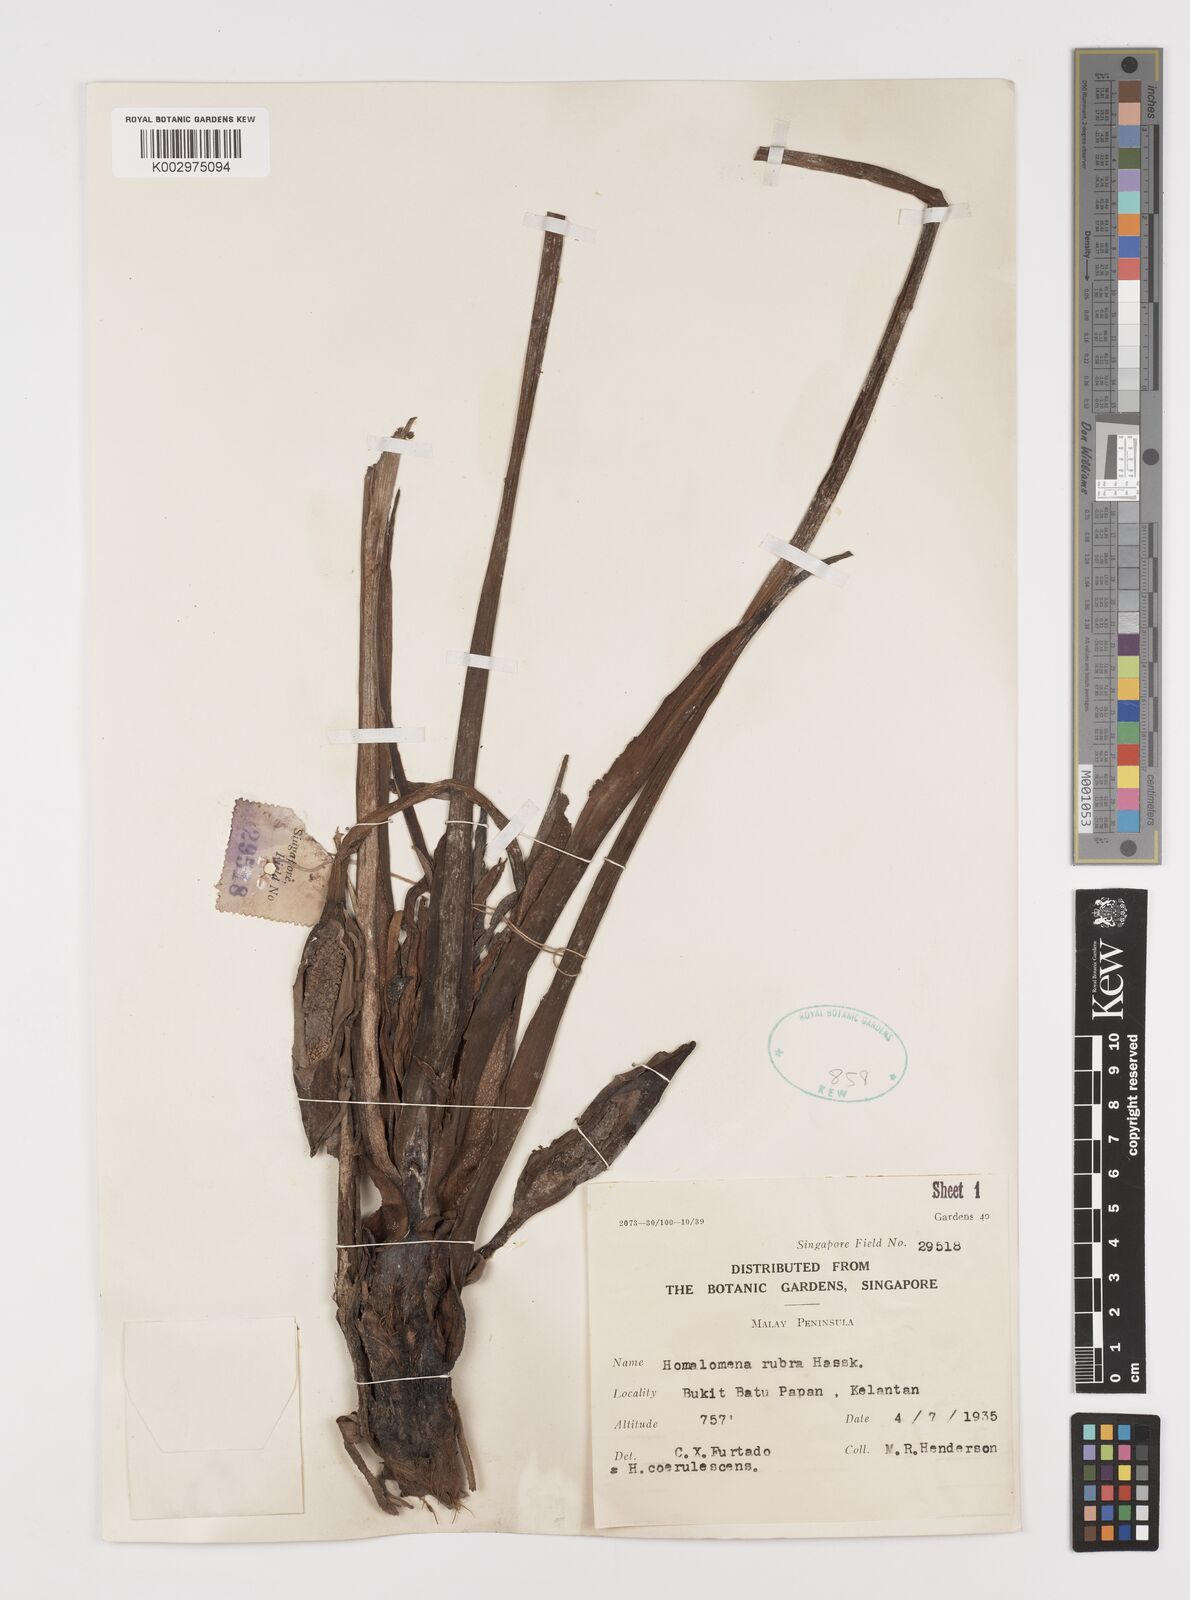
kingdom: Plantae
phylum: Tracheophyta
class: Liliopsida
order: Alismatales
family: Araceae
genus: Homalomena
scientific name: Homalomena pendula
